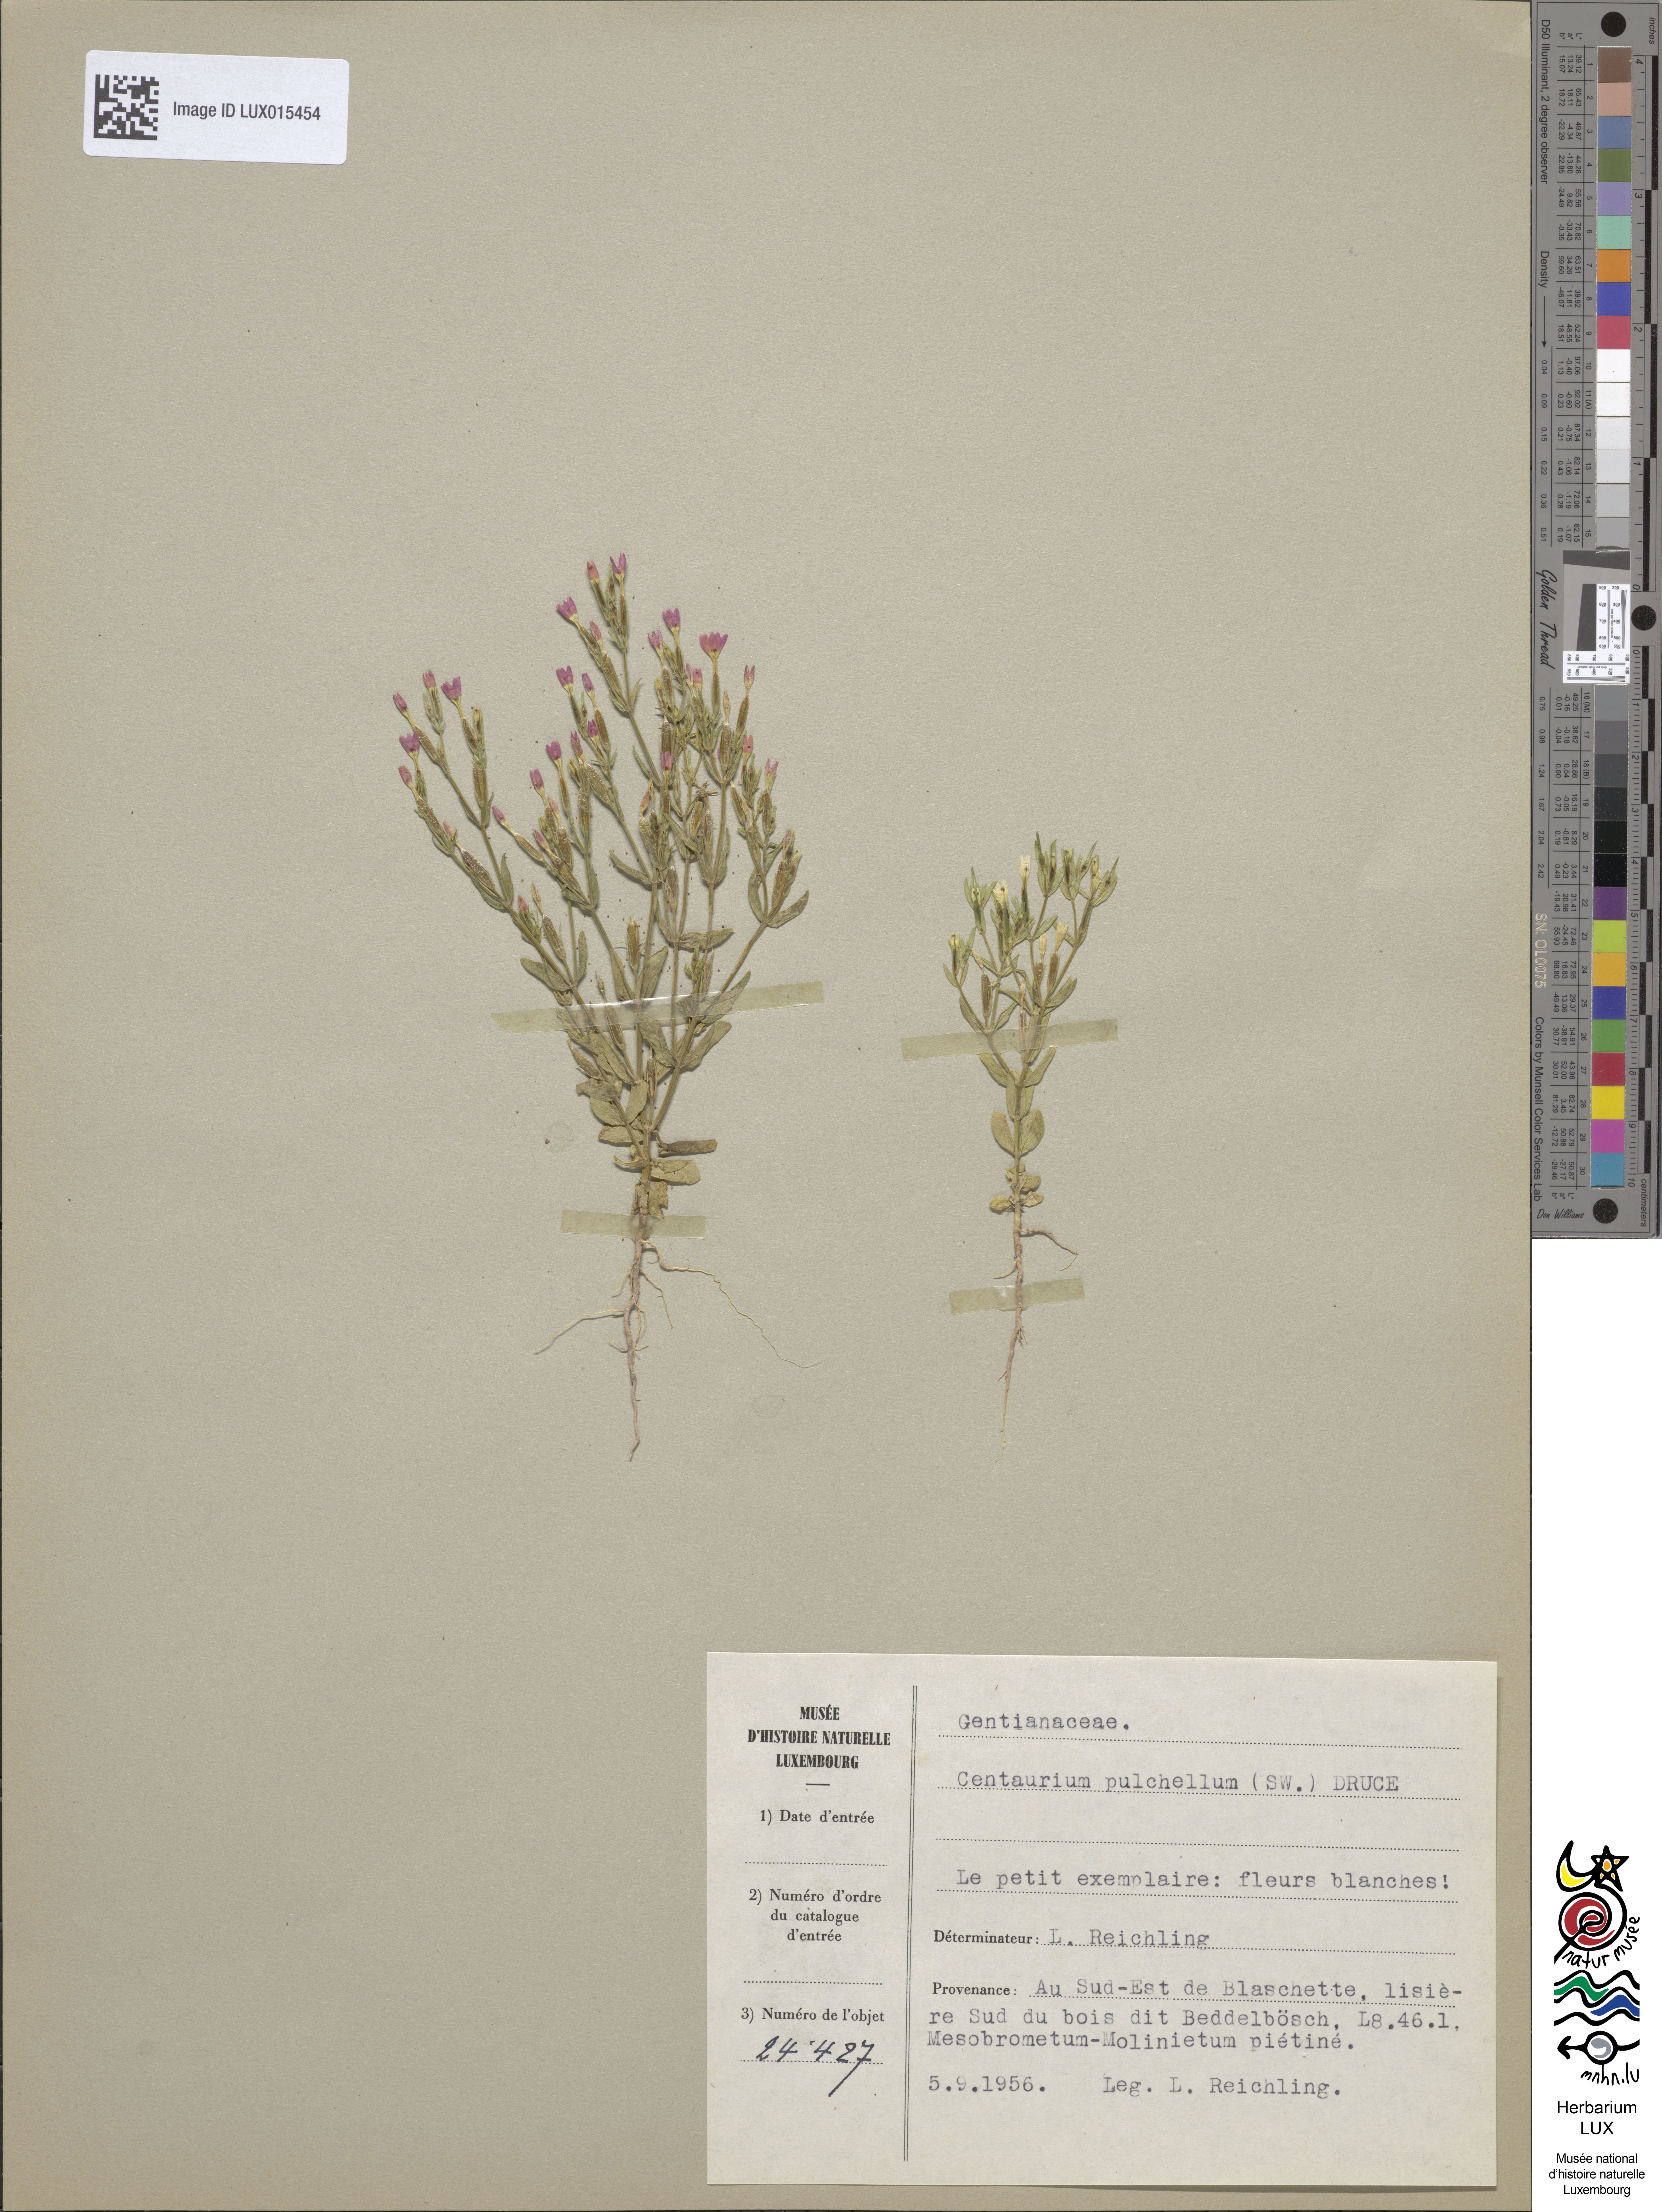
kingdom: Plantae
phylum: Tracheophyta
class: Magnoliopsida
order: Gentianales
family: Gentianaceae
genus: Centaurium
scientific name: Centaurium pulchellum
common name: Lesser centaury
